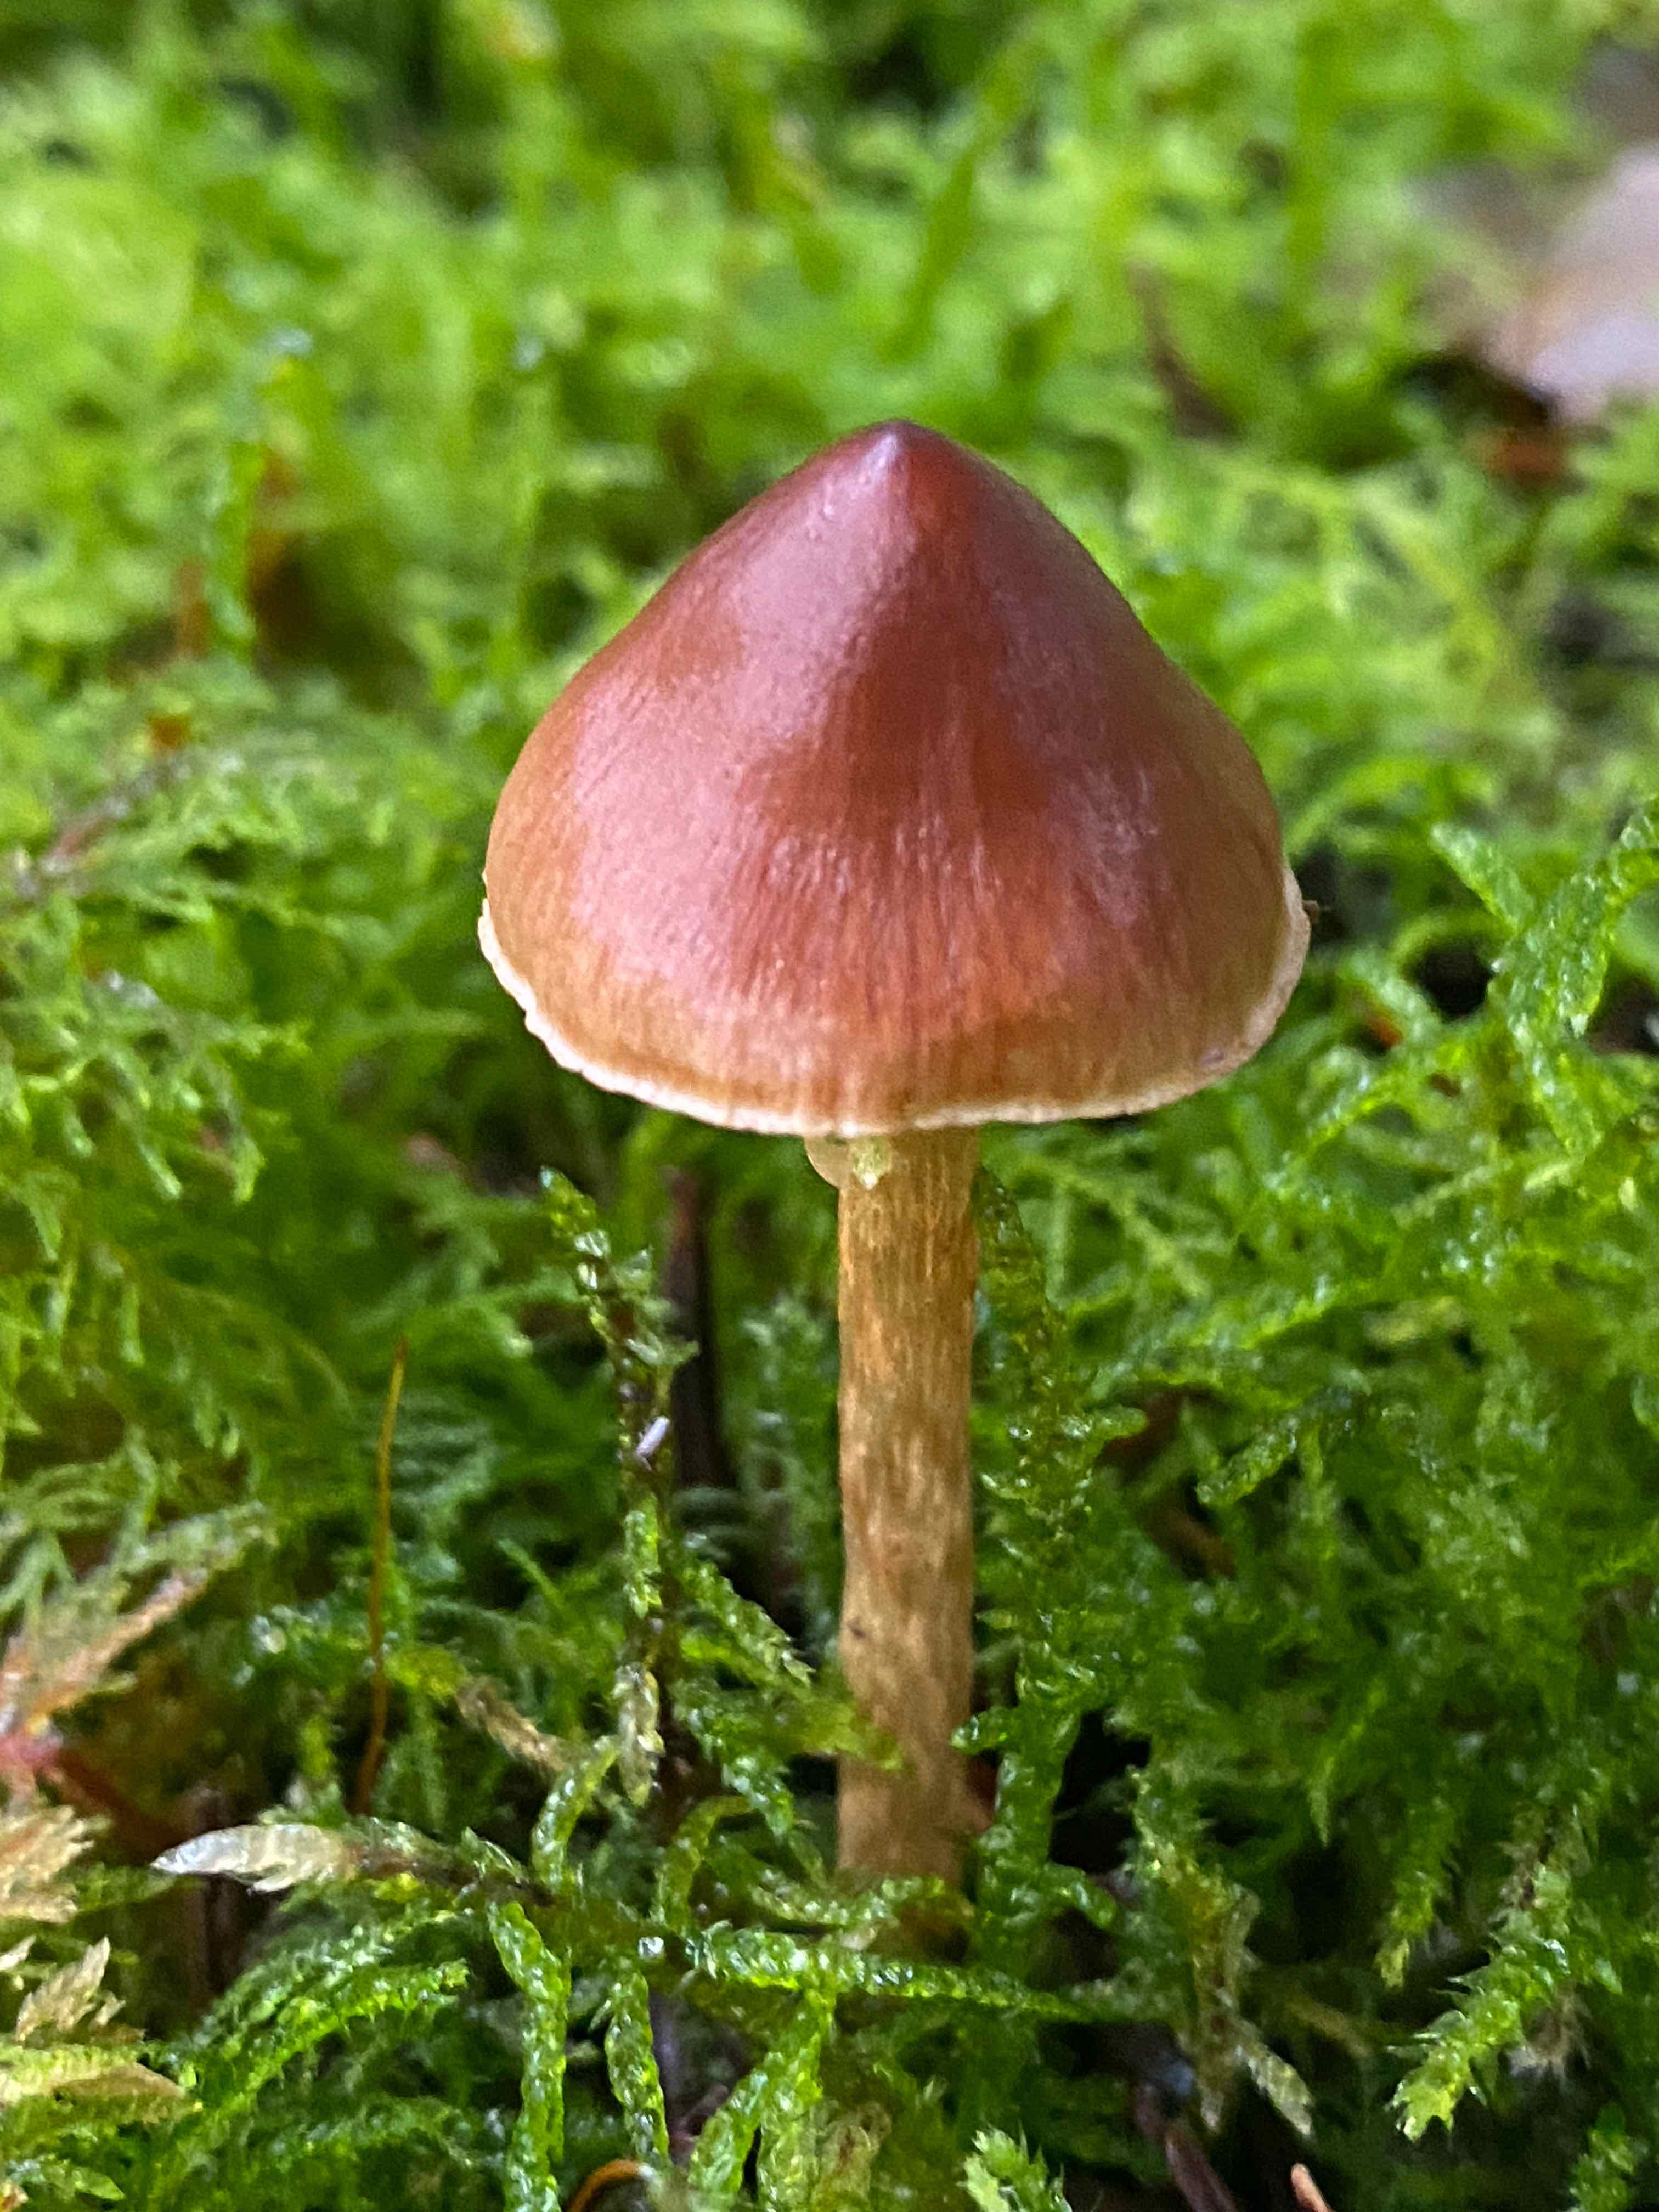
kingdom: Fungi
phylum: Basidiomycota
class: Agaricomycetes
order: Agaricales
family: Cortinariaceae
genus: Cortinarius
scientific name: Cortinarius
